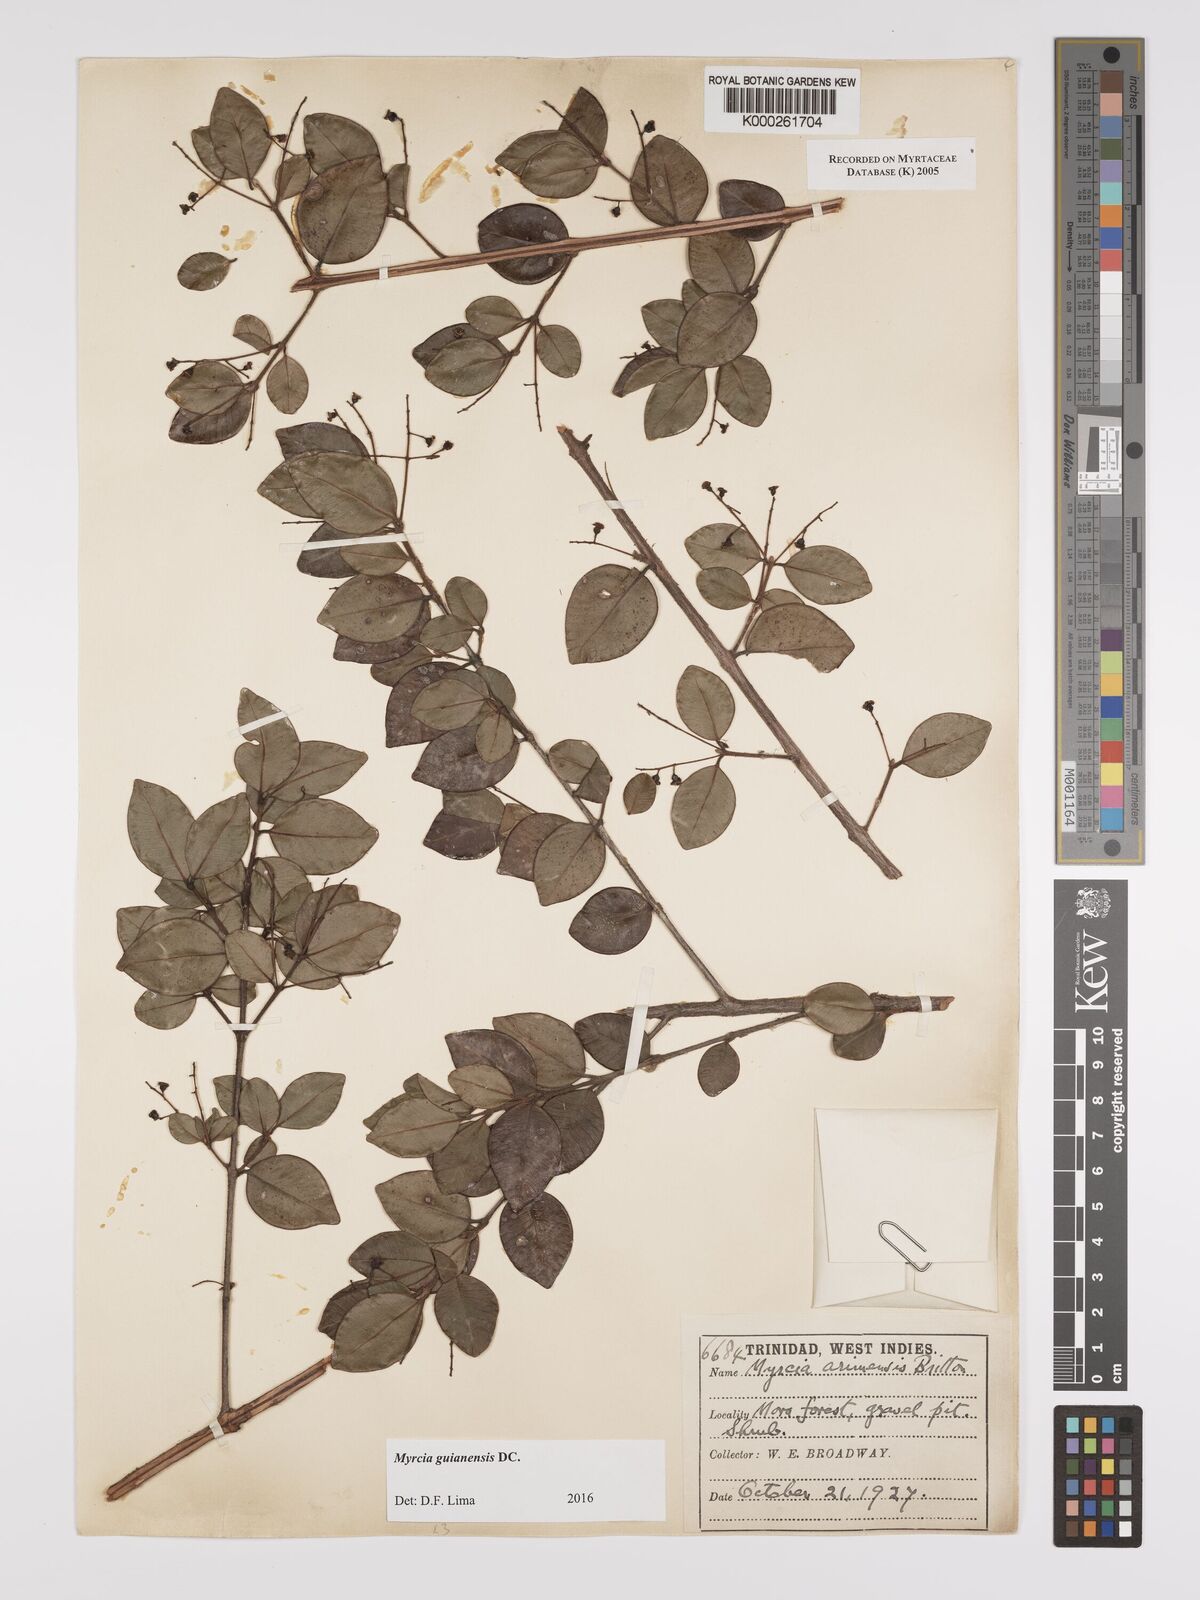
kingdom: Plantae
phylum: Tracheophyta
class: Magnoliopsida
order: Myrtales
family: Myrtaceae
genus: Myrcia
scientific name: Myrcia guianensis
